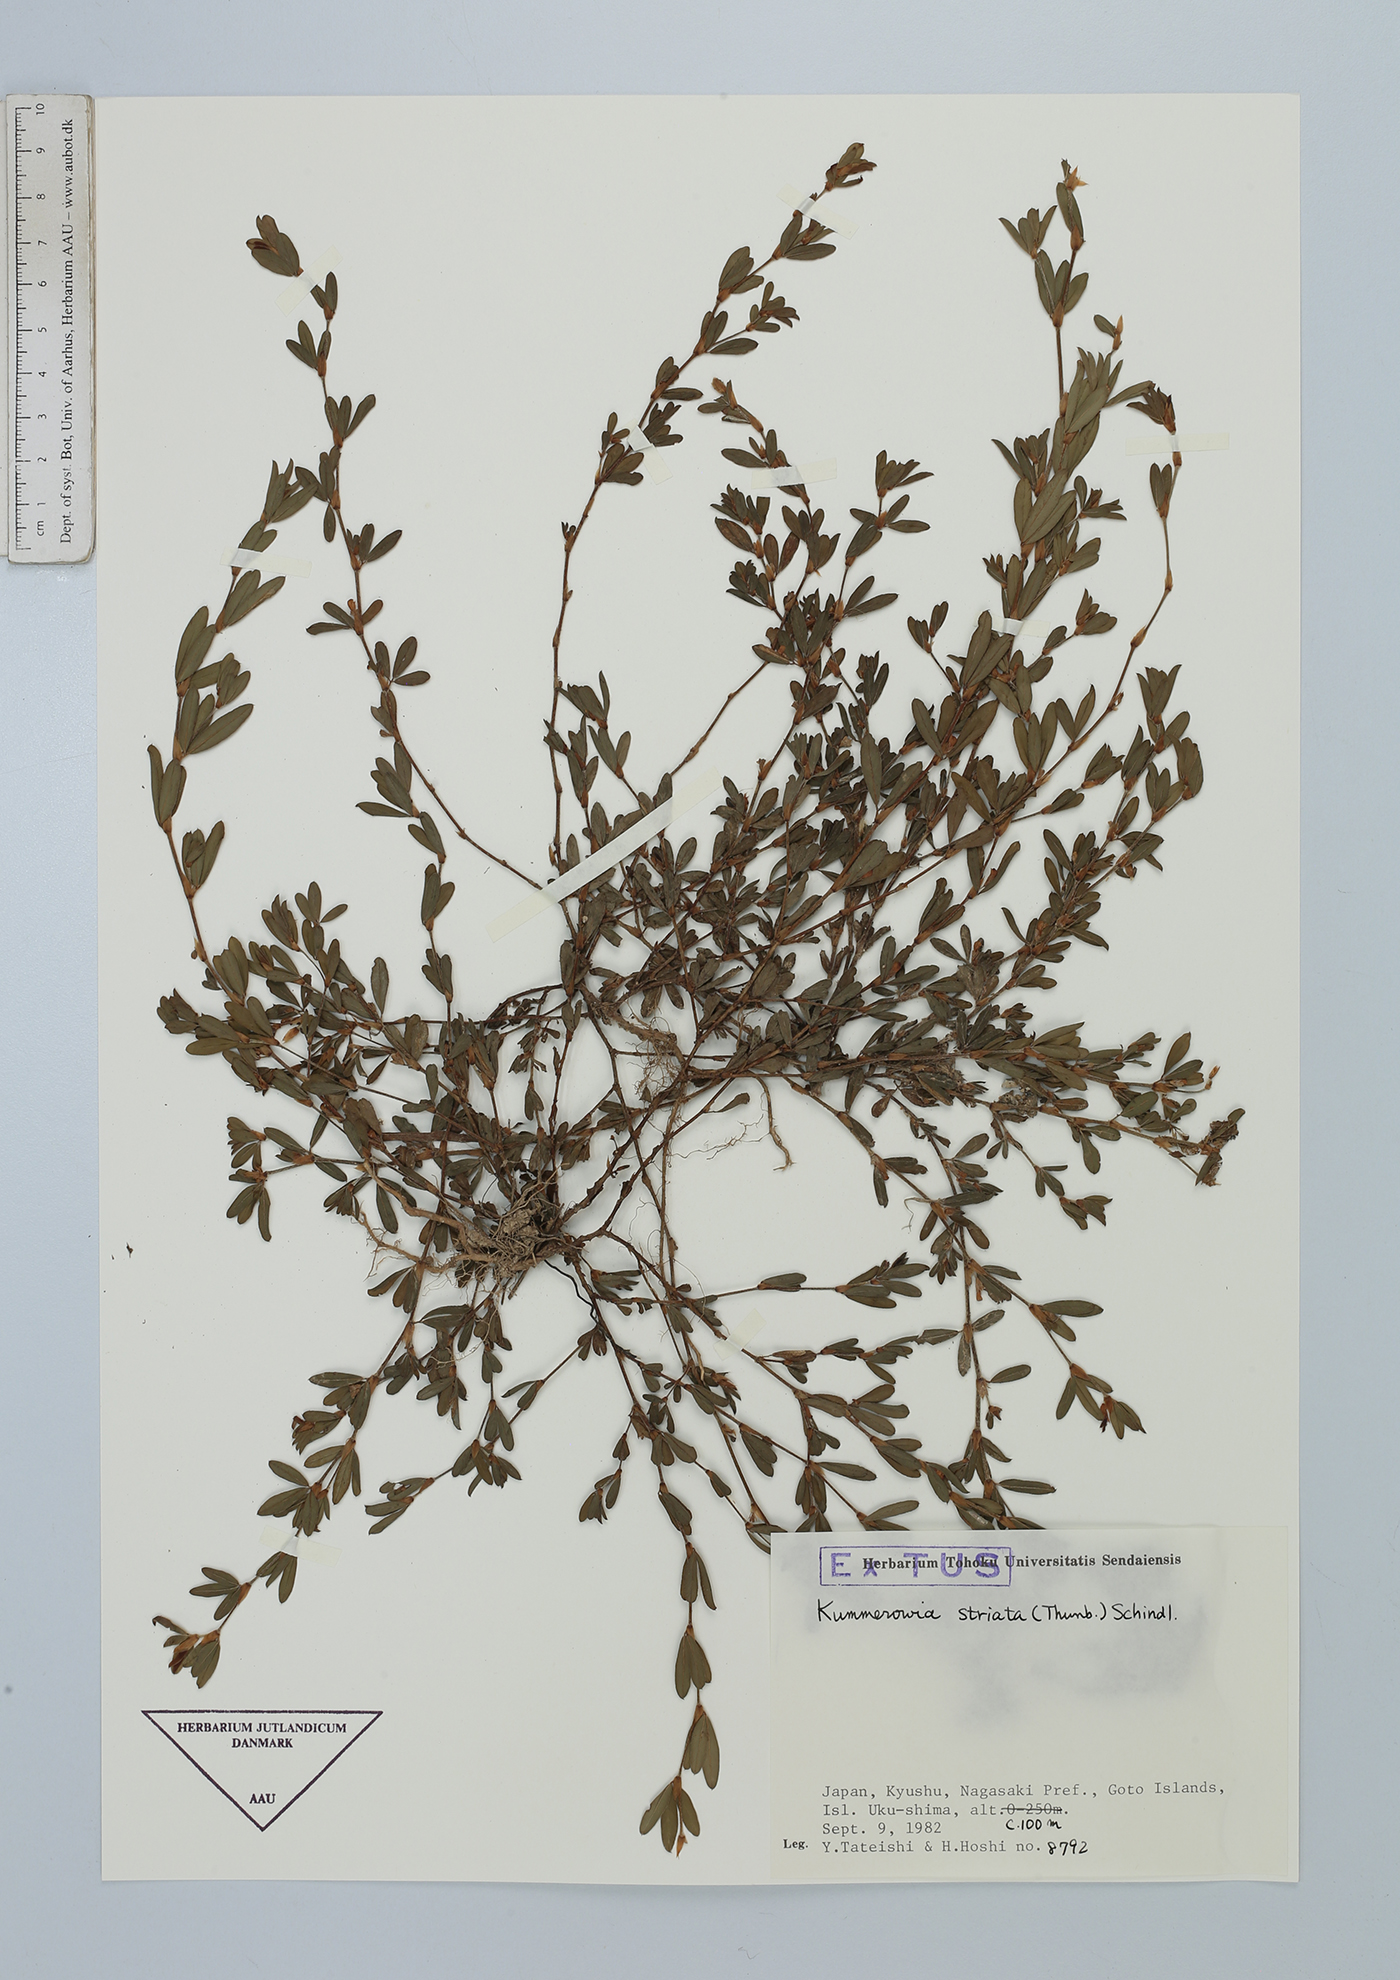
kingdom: Plantae
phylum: Tracheophyta
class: Magnoliopsida
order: Fabales
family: Fabaceae
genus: Kummerowia
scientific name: Kummerowia striata
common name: Japanese clover
